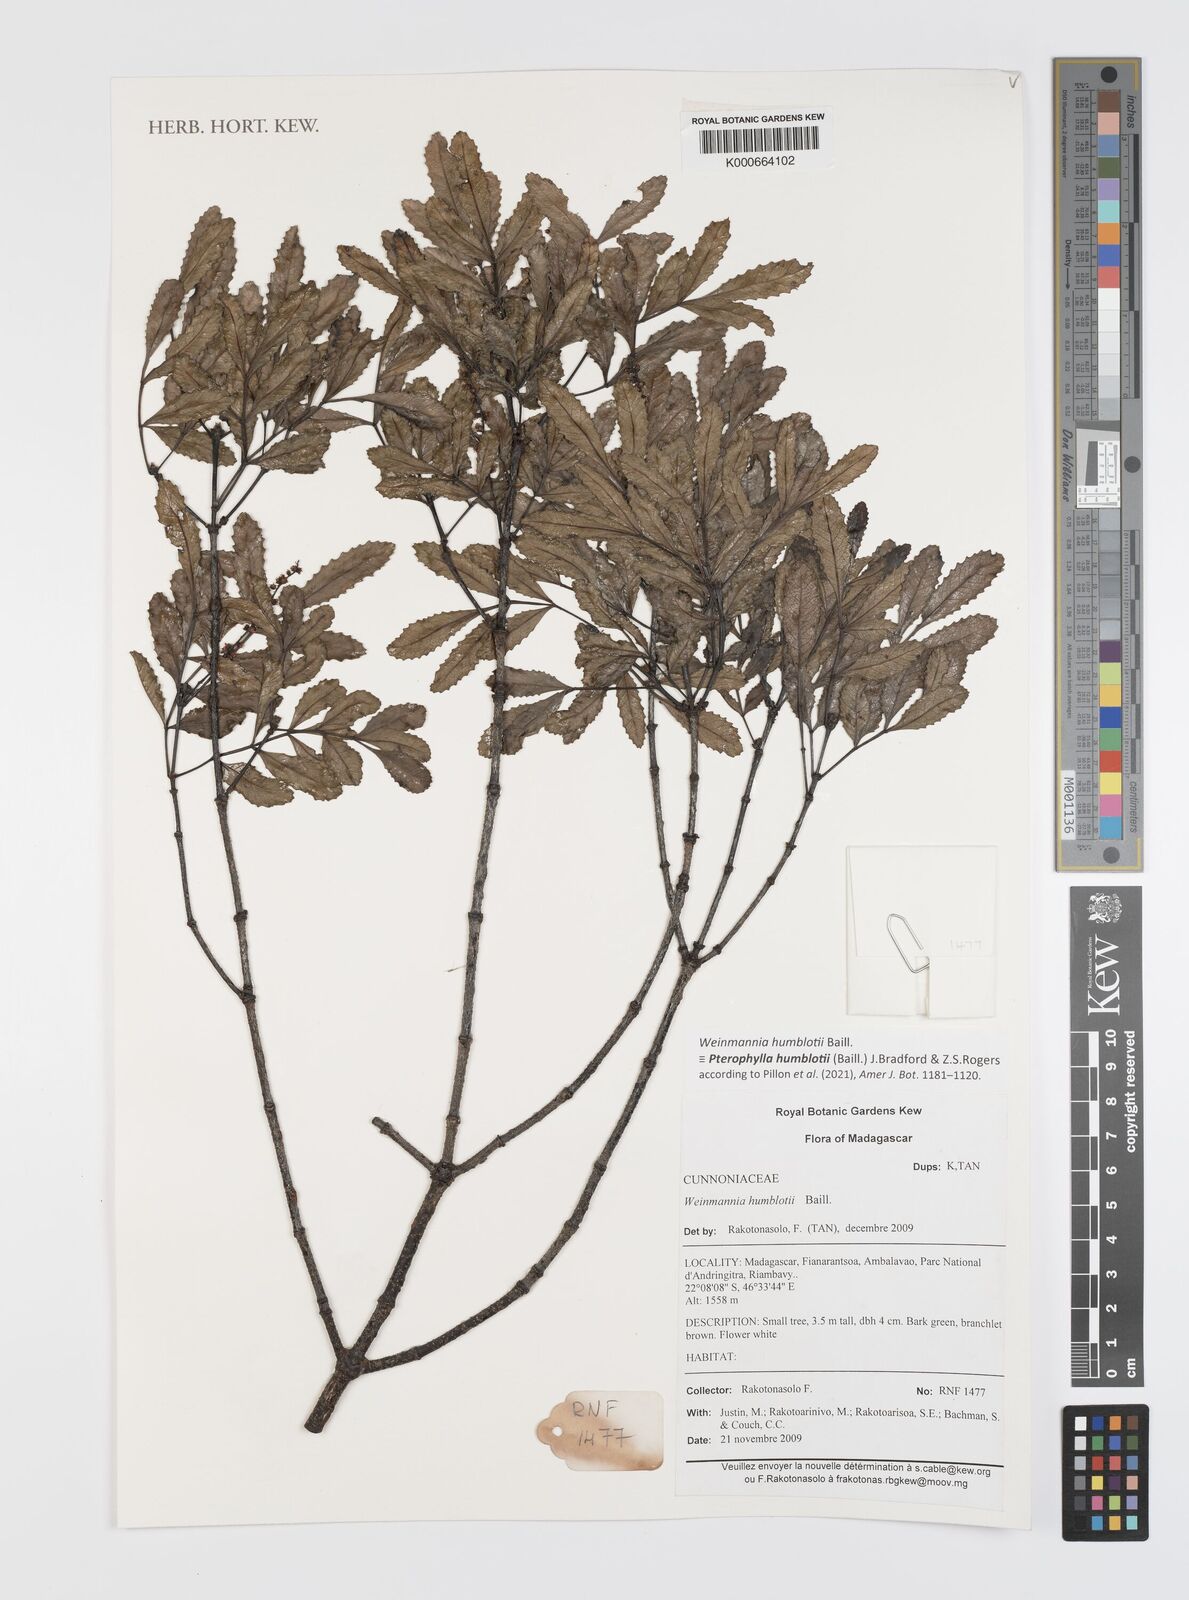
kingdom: Plantae
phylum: Tracheophyta
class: Magnoliopsida
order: Oxalidales
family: Cunoniaceae
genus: Pterophylla
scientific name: Pterophylla
